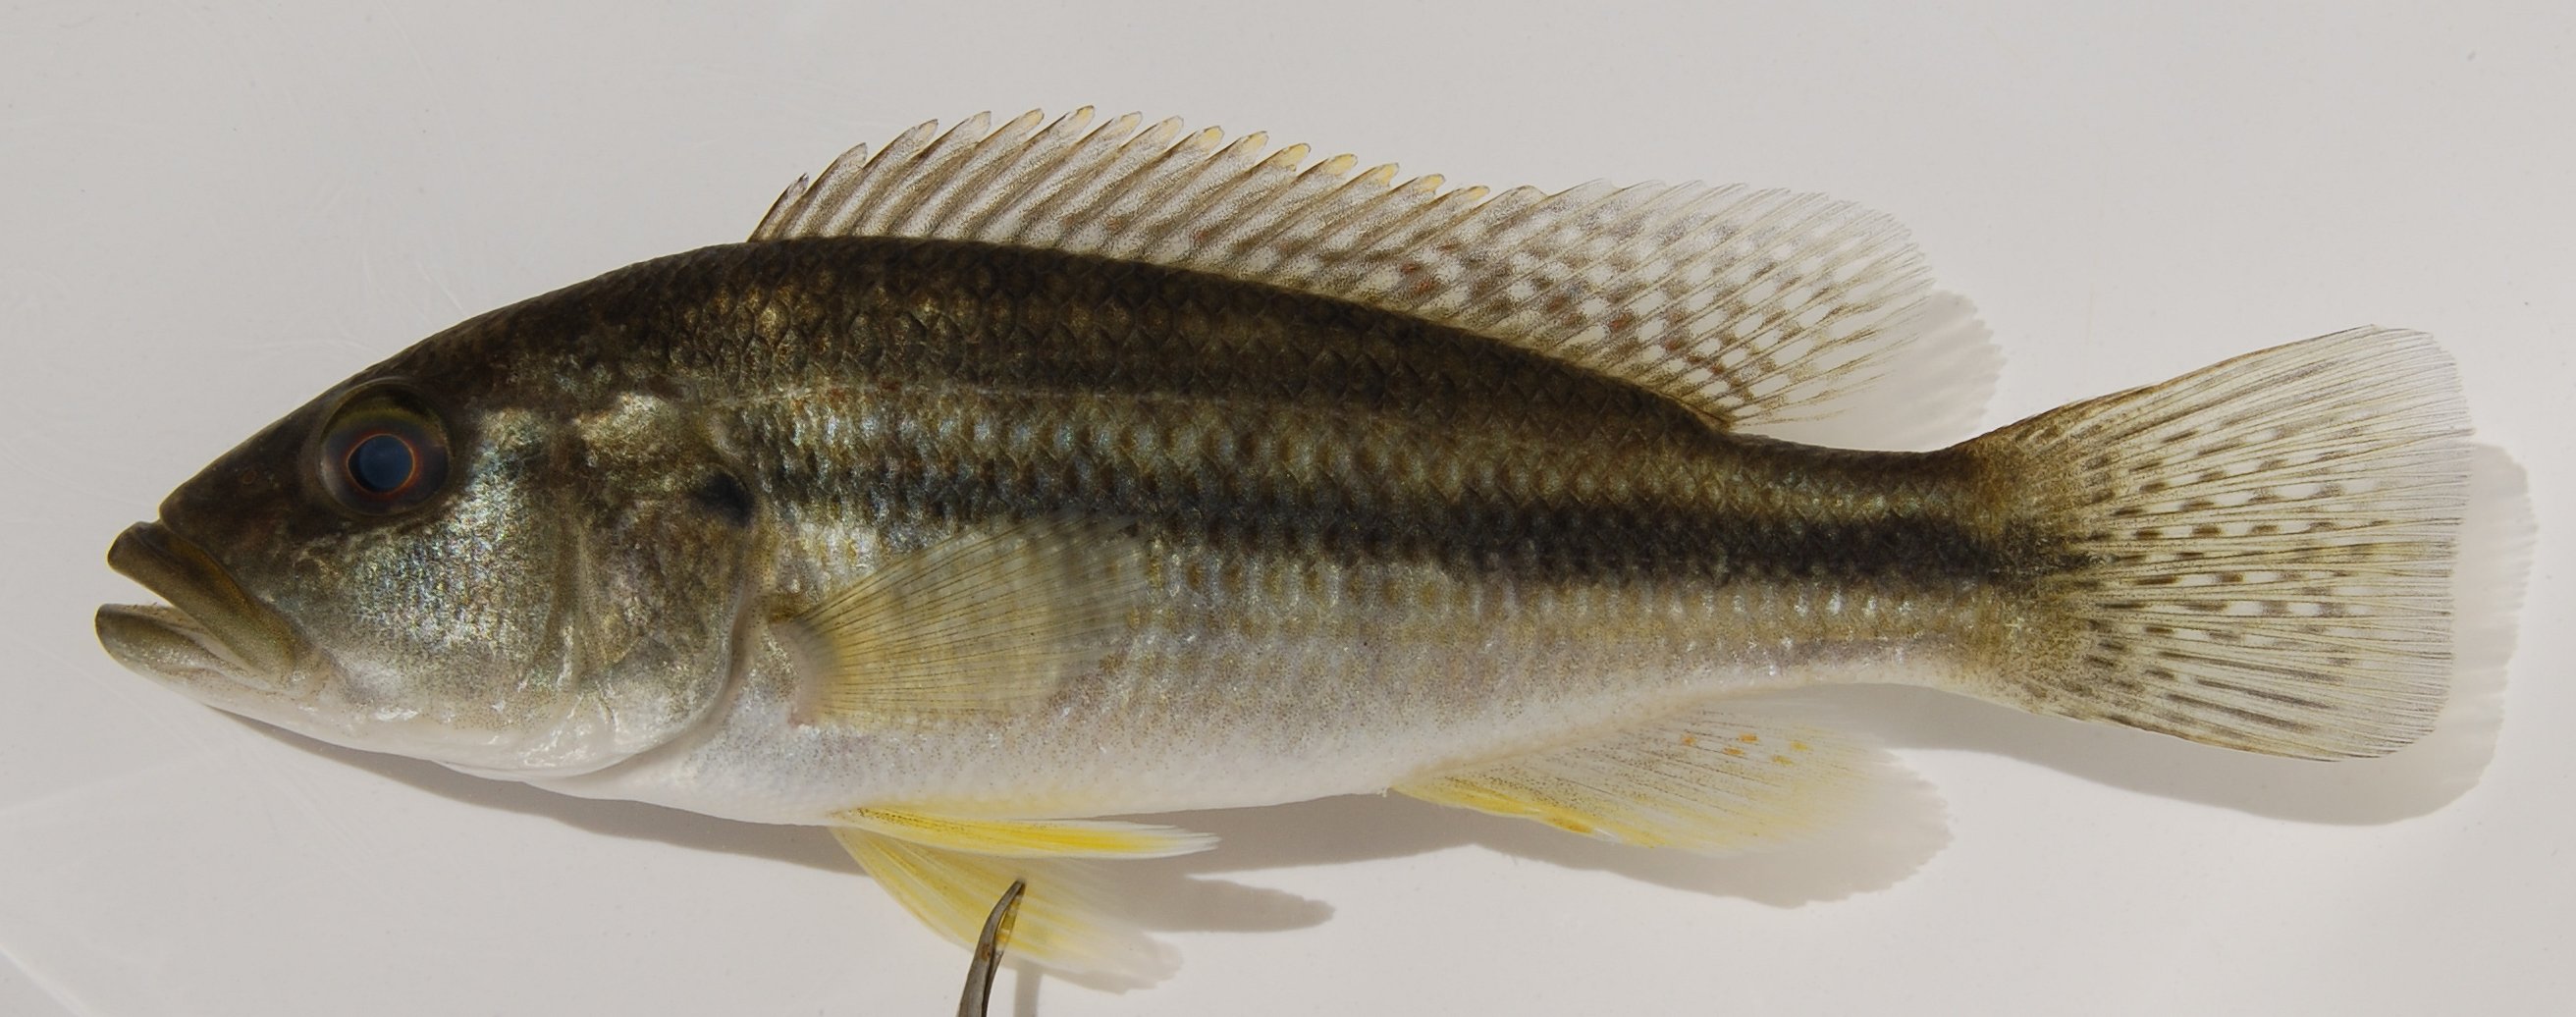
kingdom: Animalia
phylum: Chordata
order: Perciformes
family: Cichlidae
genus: Serranochromis
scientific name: Serranochromis robustus
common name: Yellow-belly bream
